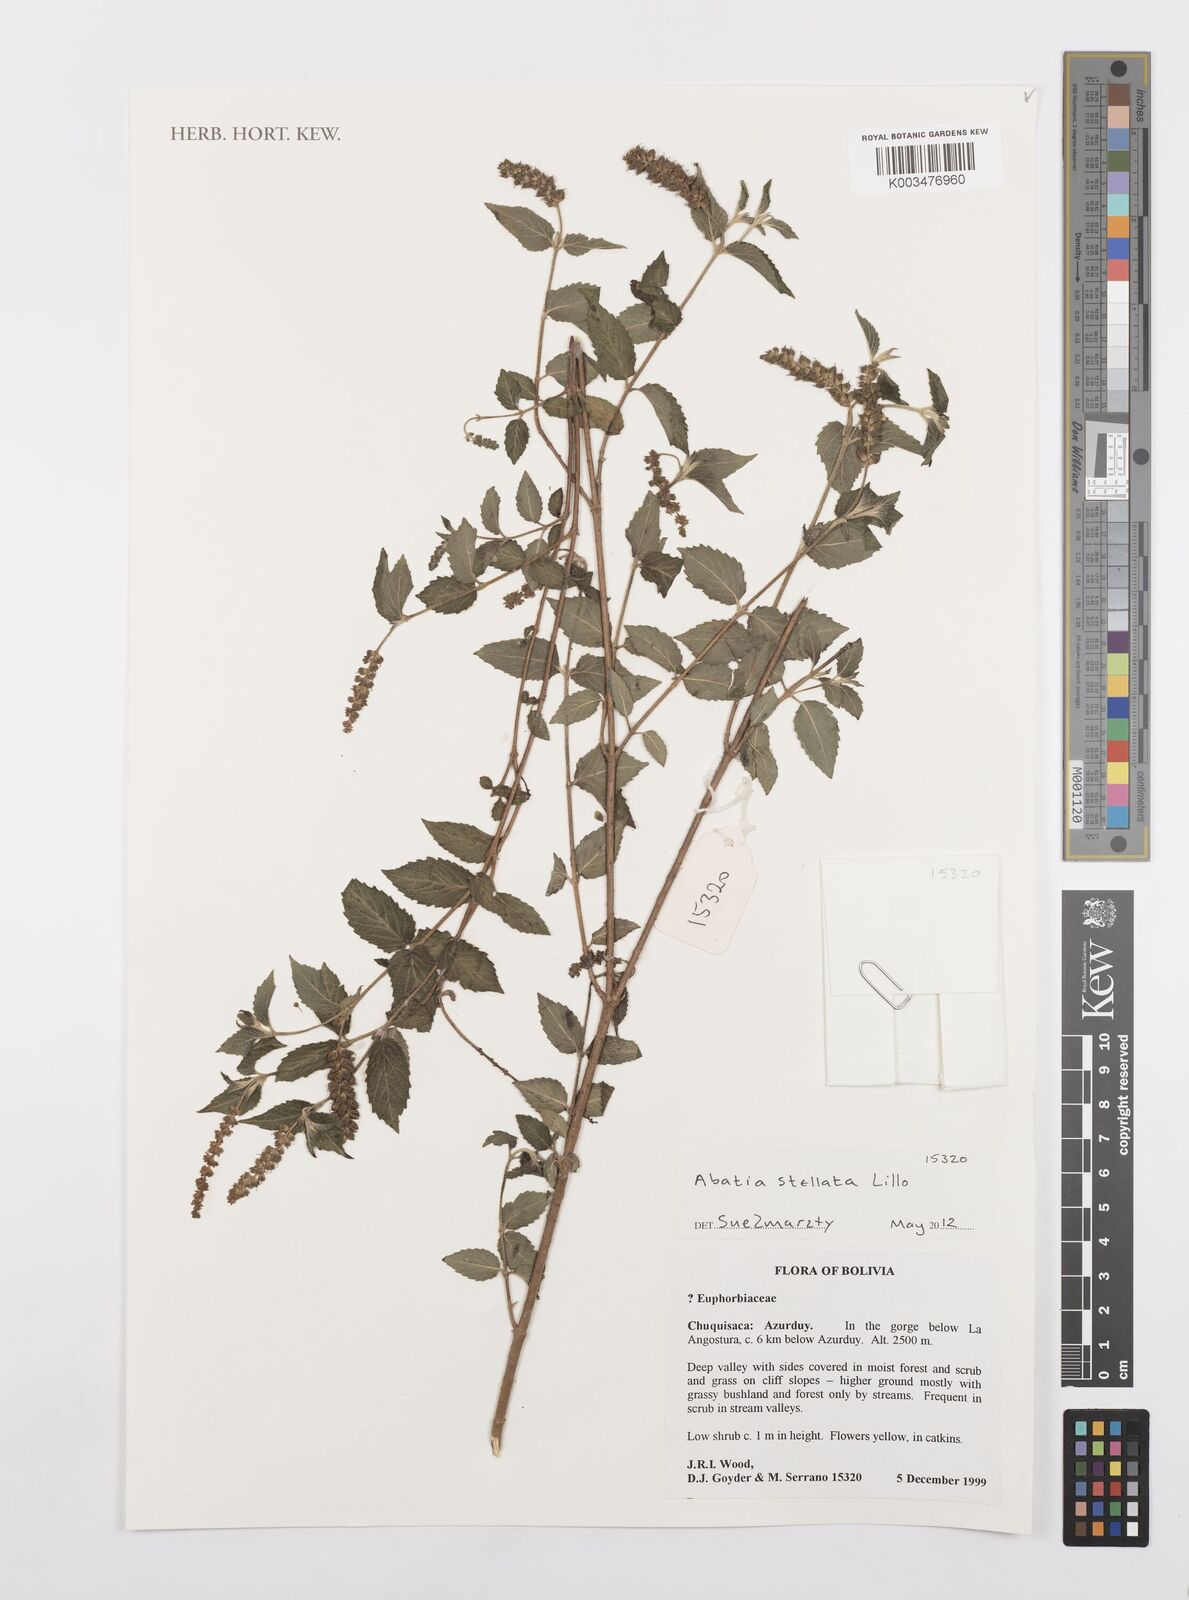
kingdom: Plantae
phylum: Tracheophyta
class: Magnoliopsida
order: Malpighiales
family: Salicaceae
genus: Abatia
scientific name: Abatia stellata
